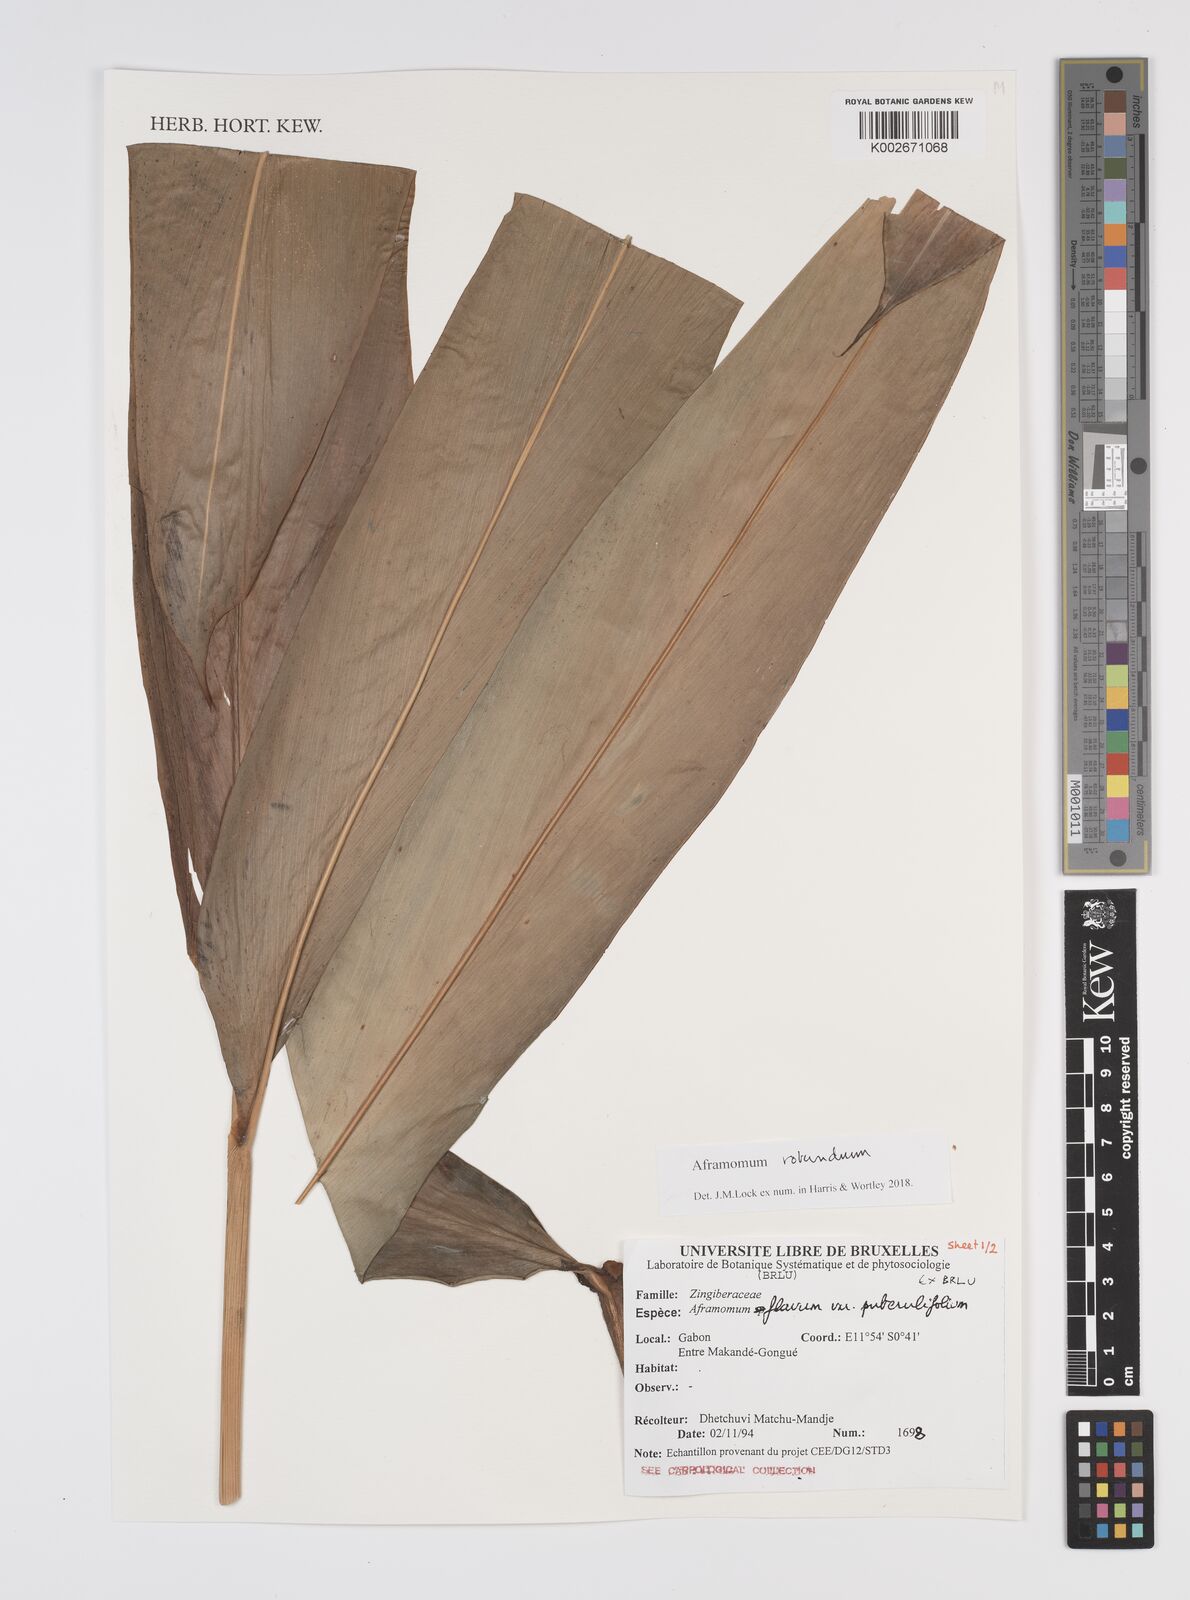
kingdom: Plantae
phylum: Tracheophyta
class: Liliopsida
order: Zingiberales
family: Zingiberaceae
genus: Aframomum
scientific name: Aframomum rotundum
